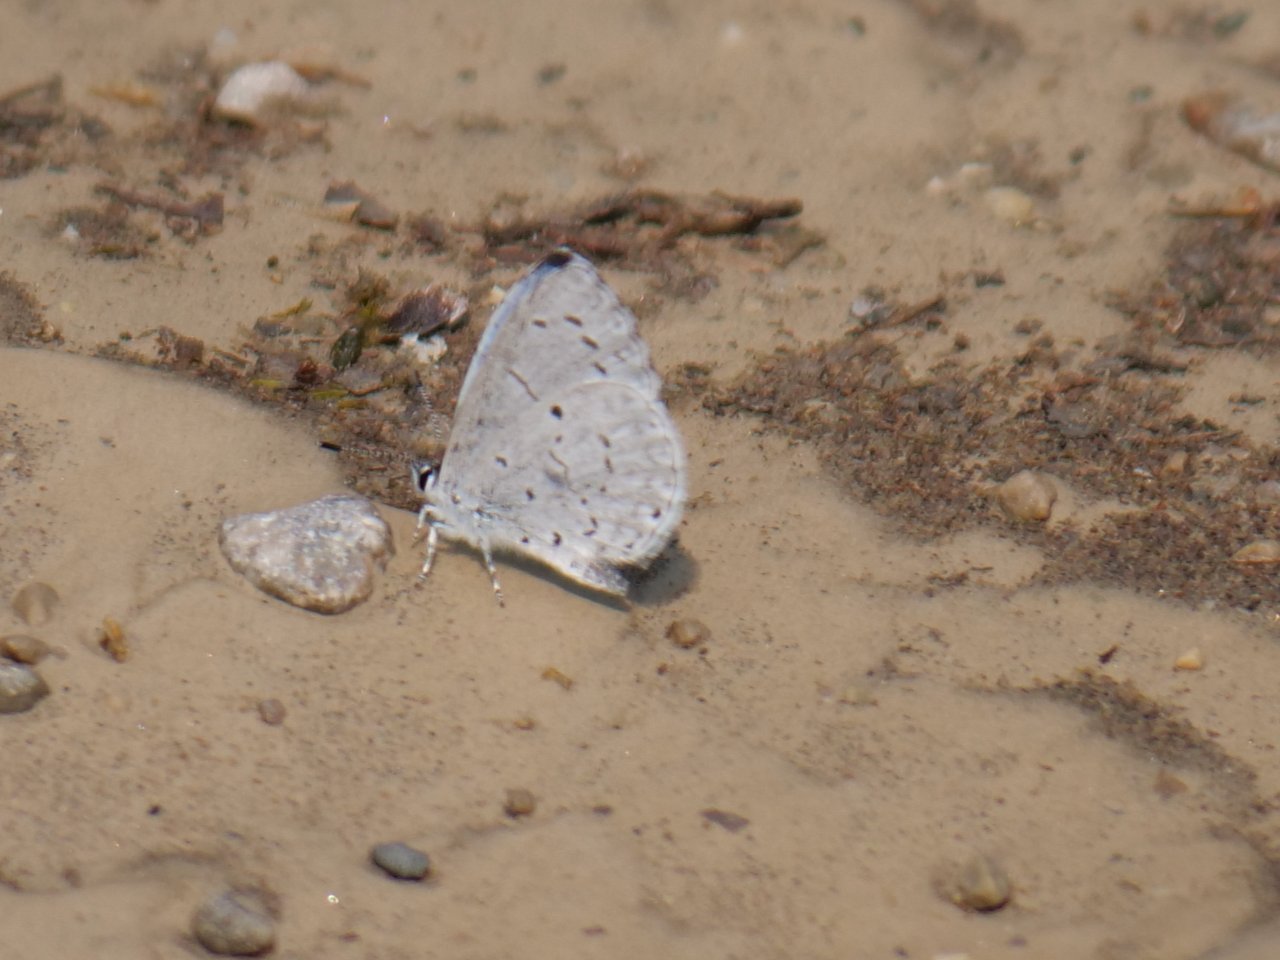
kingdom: Animalia
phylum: Arthropoda
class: Insecta
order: Lepidoptera
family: Lycaenidae
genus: Cyaniris
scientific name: Cyaniris neglecta
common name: Summer Azure
